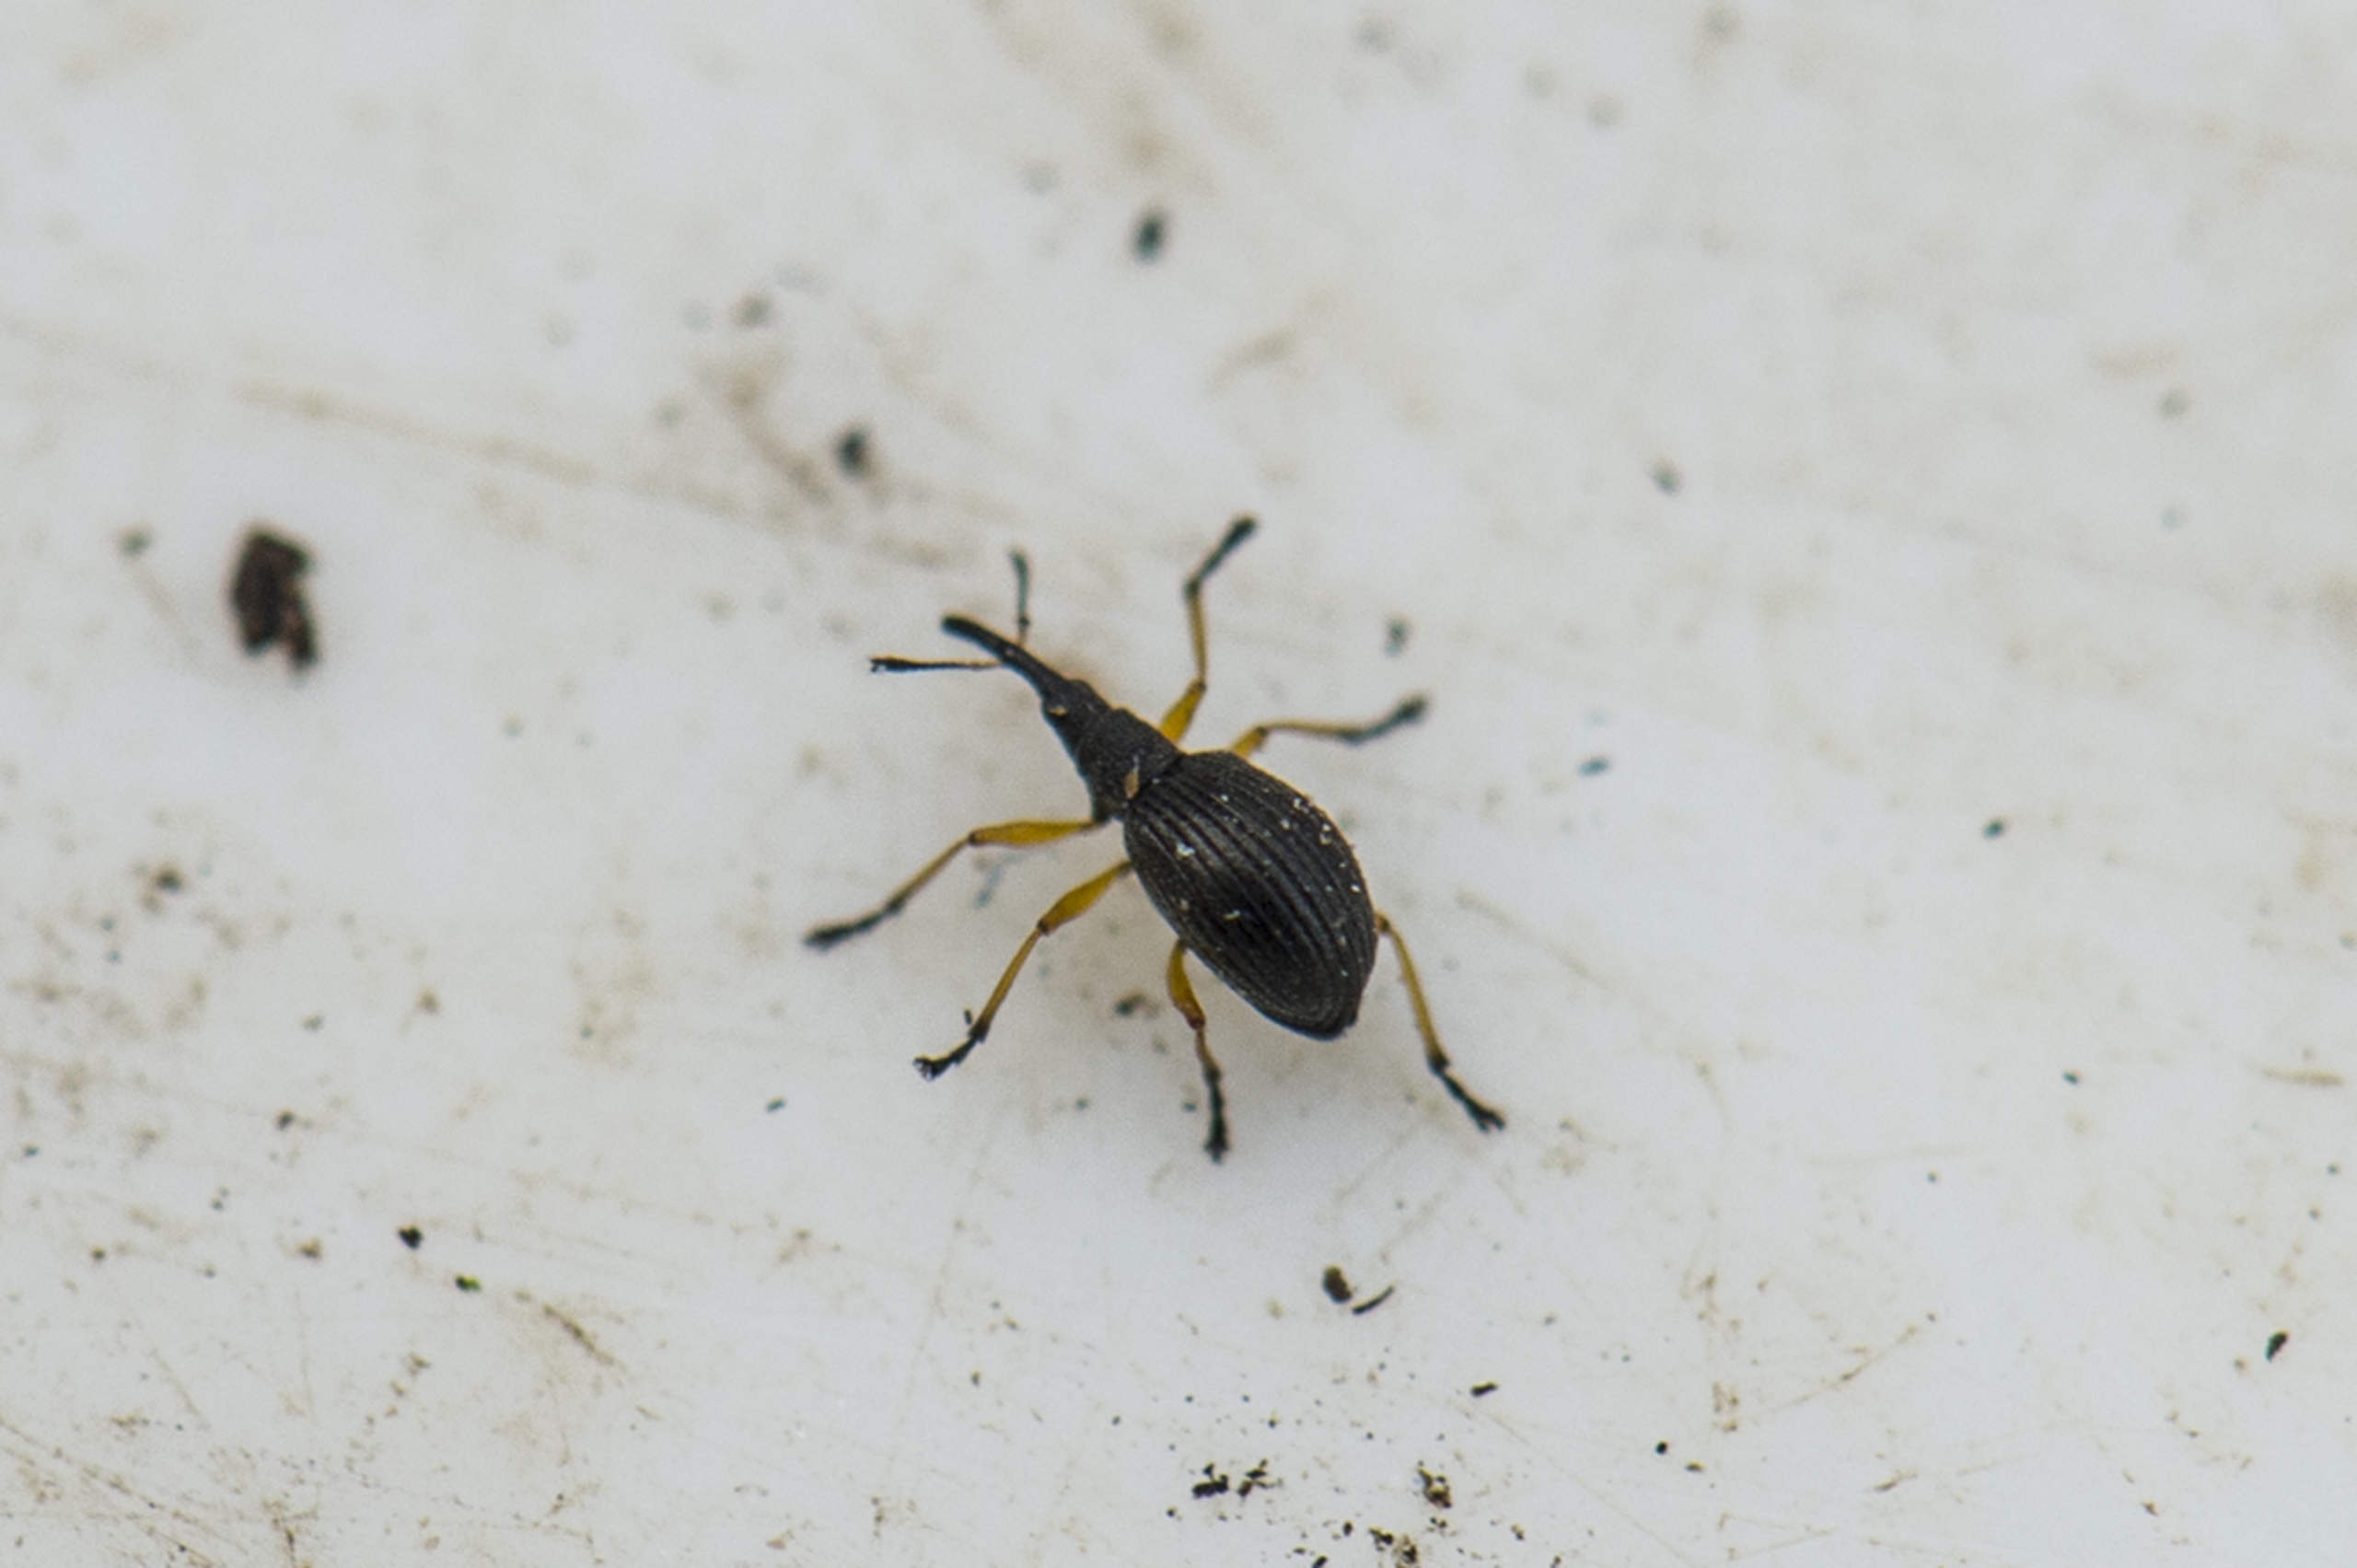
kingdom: Animalia
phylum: Arthropoda
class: Insecta
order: Coleoptera
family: Apionidae
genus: Protapion
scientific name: Protapion fulvipes
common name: Hvidkløversnudebille
